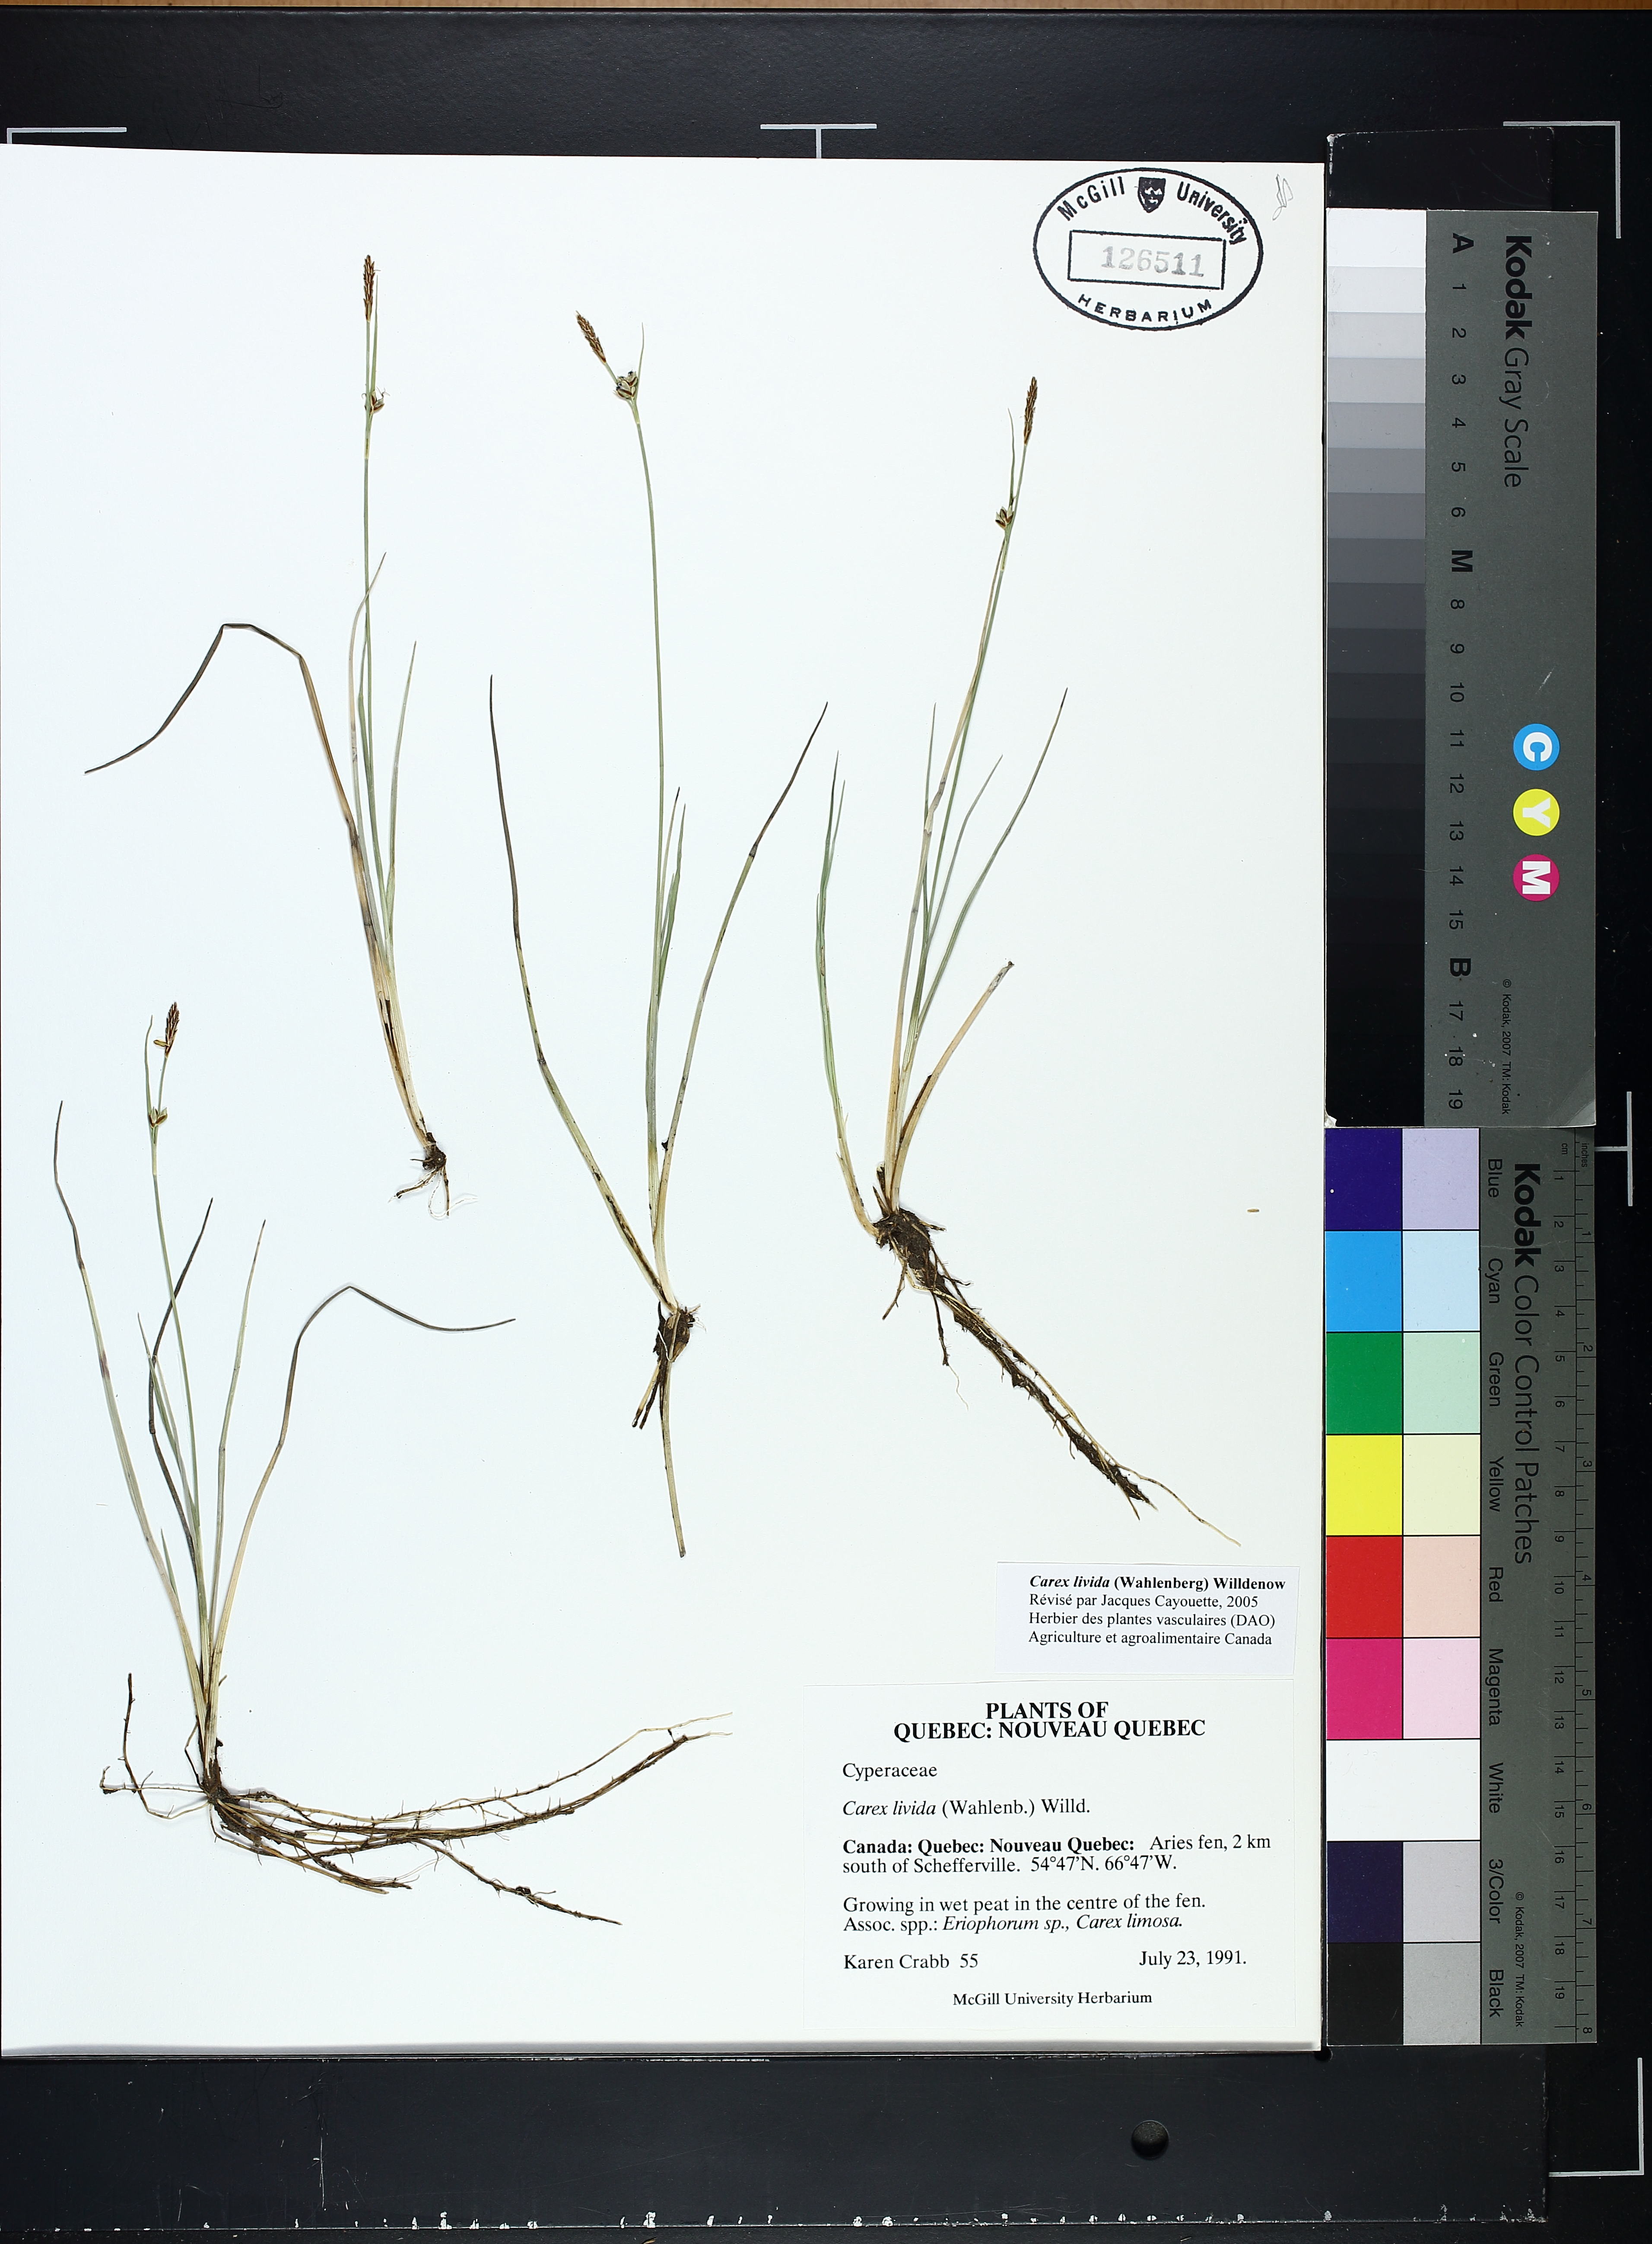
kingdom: Plantae
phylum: Tracheophyta
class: Liliopsida
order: Poales
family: Cyperaceae
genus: Carex
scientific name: Carex livida
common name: Livid sedge
